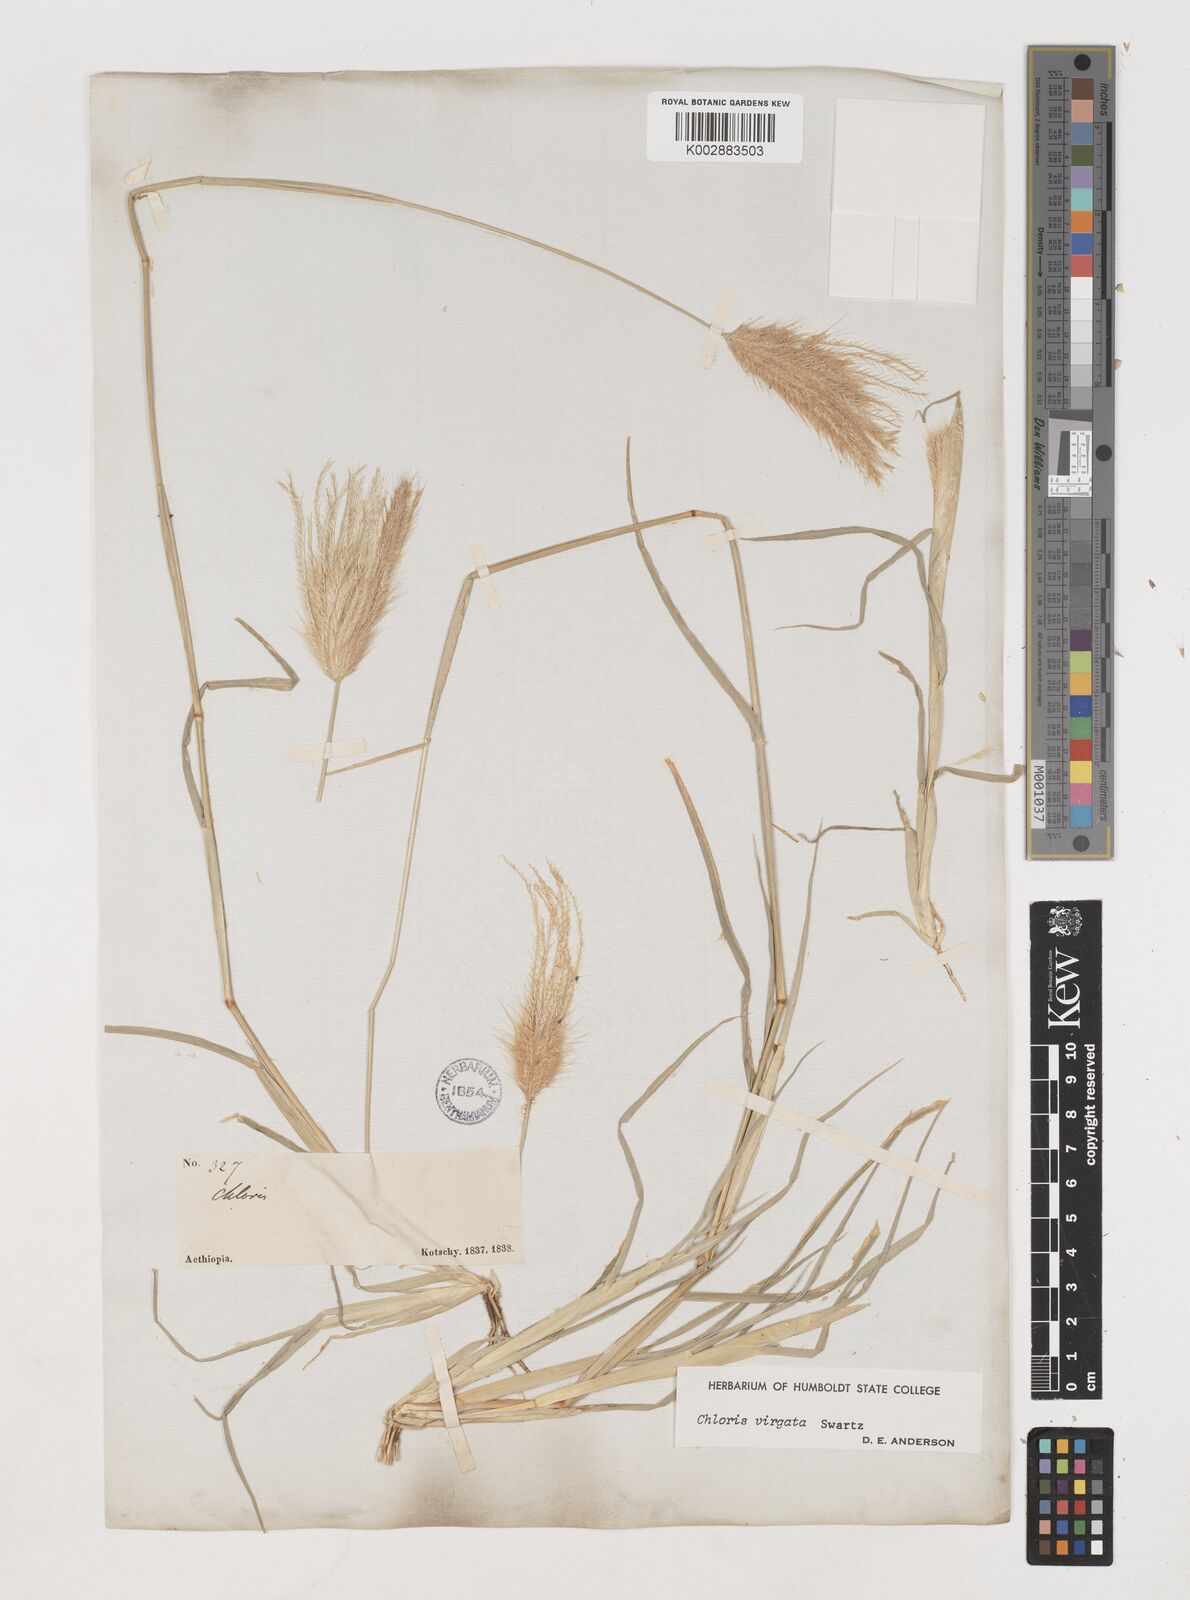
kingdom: Plantae
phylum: Tracheophyta
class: Liliopsida
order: Poales
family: Poaceae
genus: Chloris
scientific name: Chloris virgata
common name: Feathery rhodes-grass
